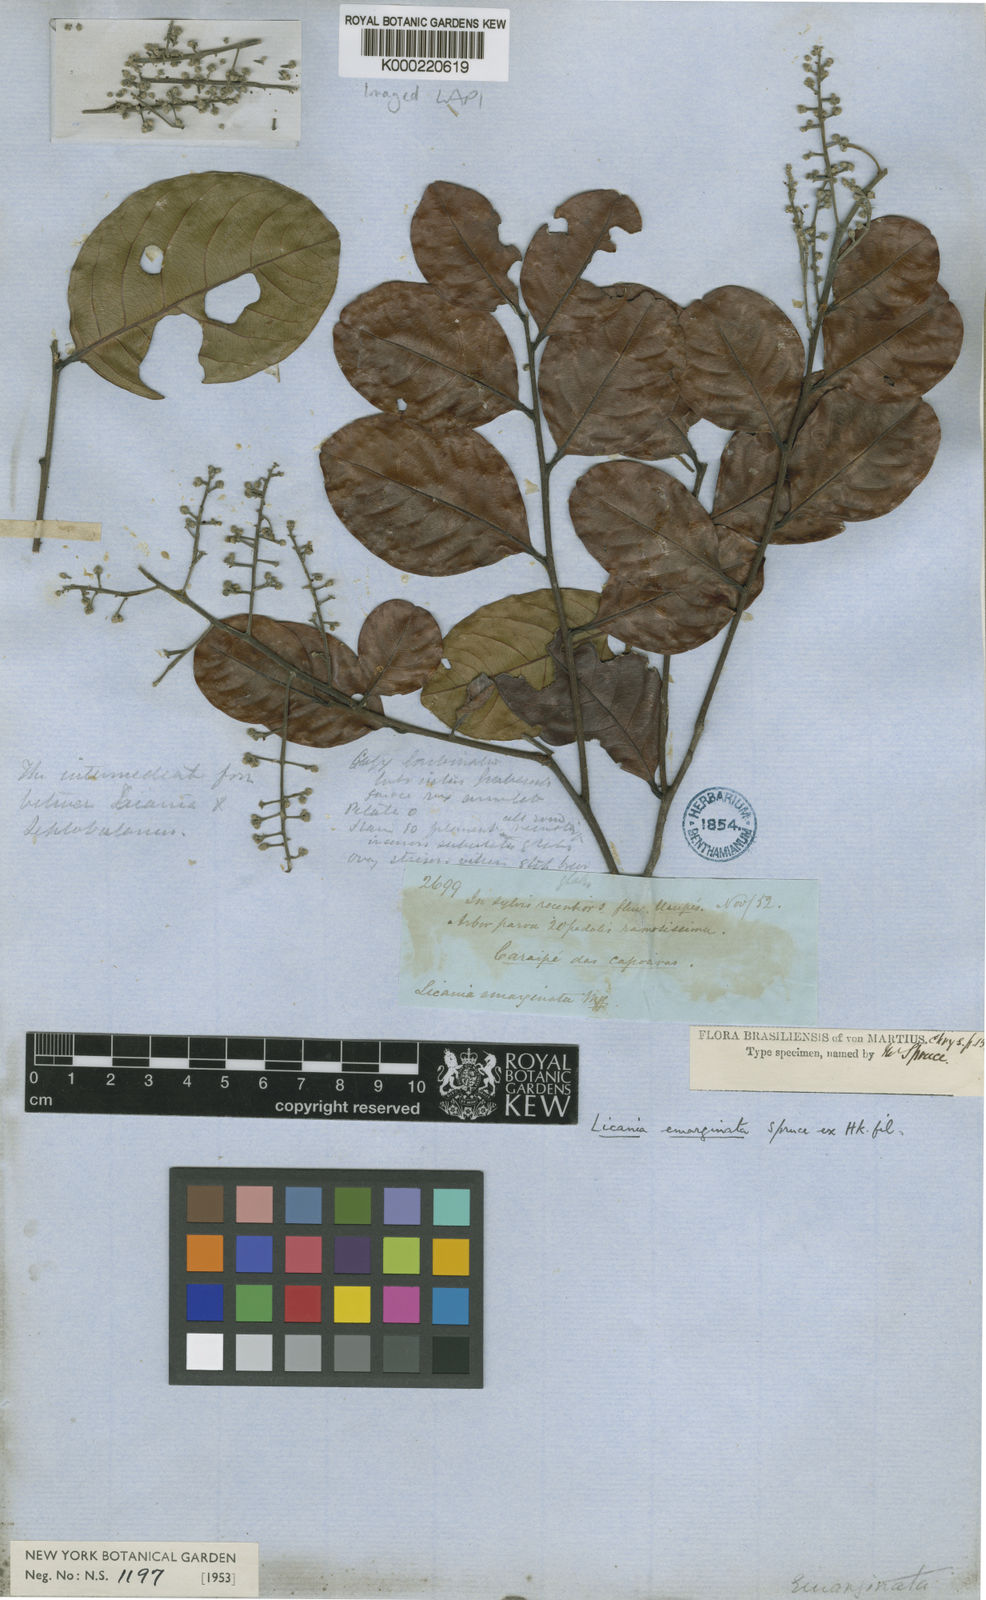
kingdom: Plantae
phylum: Tracheophyta
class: Magnoliopsida
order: Malpighiales
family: Chrysobalanaceae
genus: Leptobalanus
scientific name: Leptobalanus emarginatus
